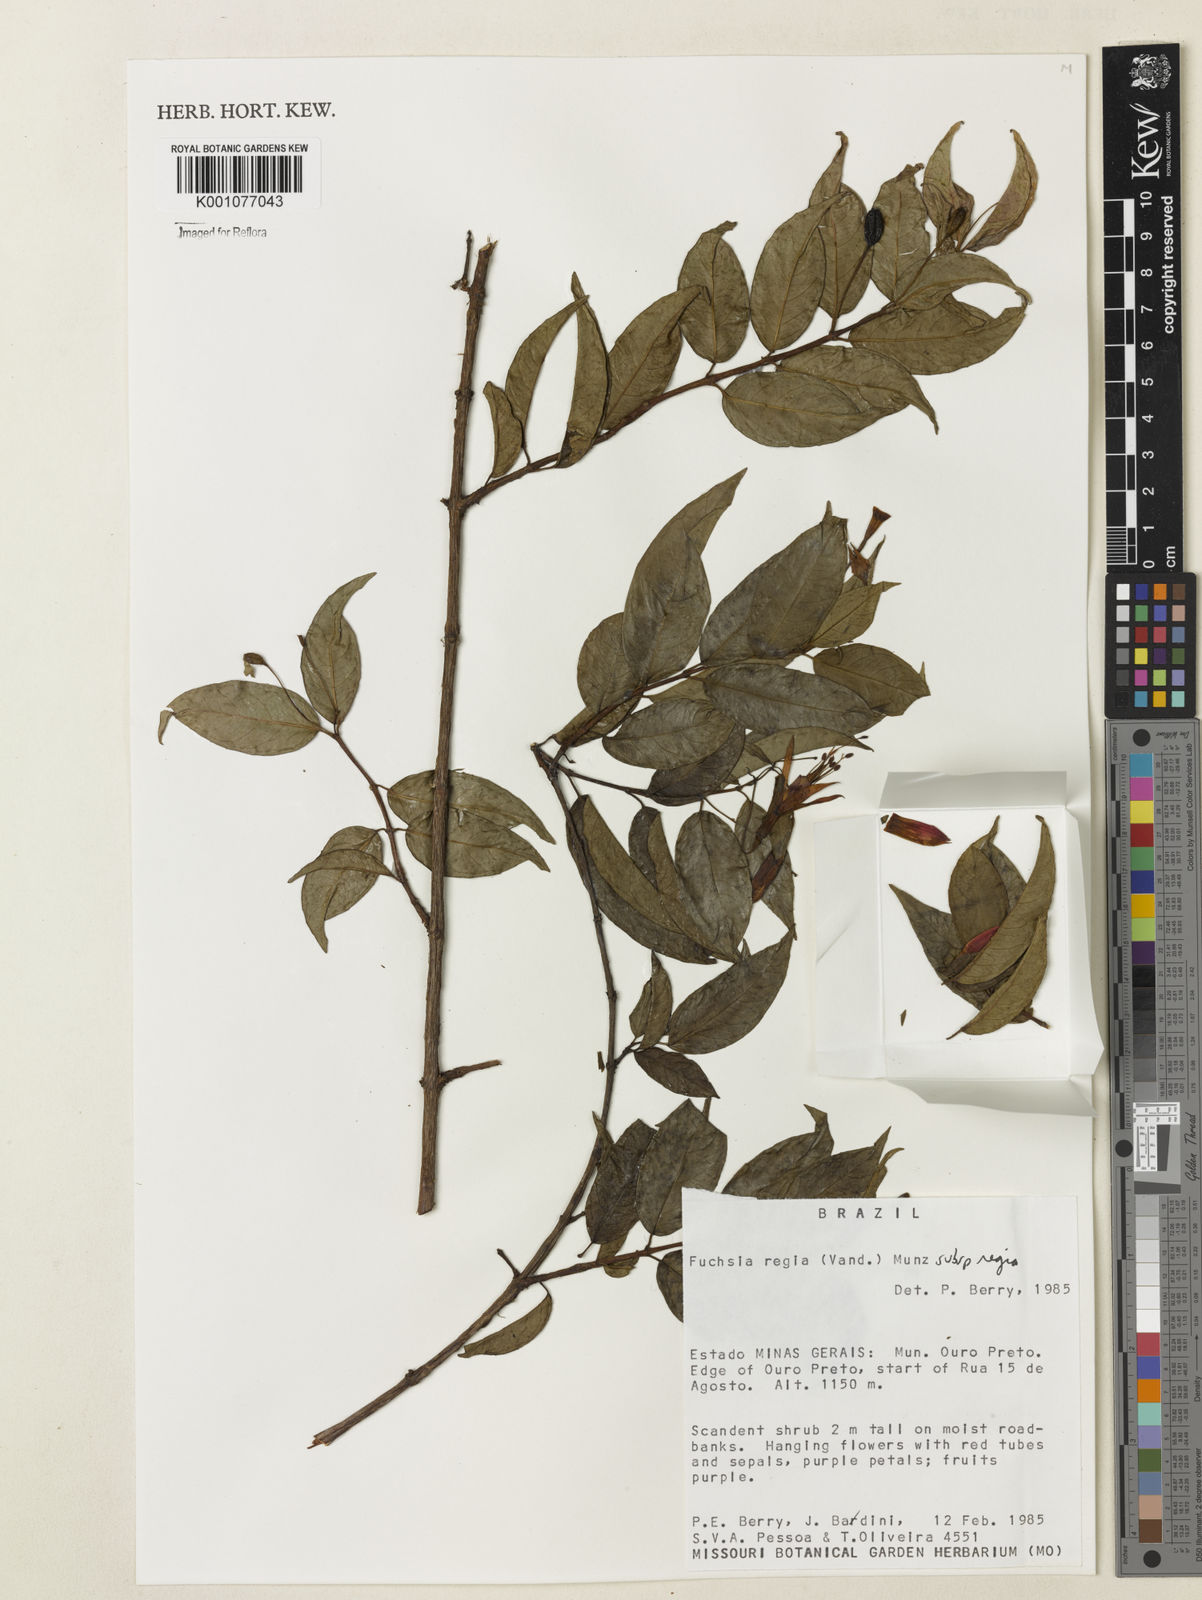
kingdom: Plantae
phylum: Tracheophyta
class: Magnoliopsida
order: Myrtales
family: Onagraceae
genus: Fuchsia
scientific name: Fuchsia regia
